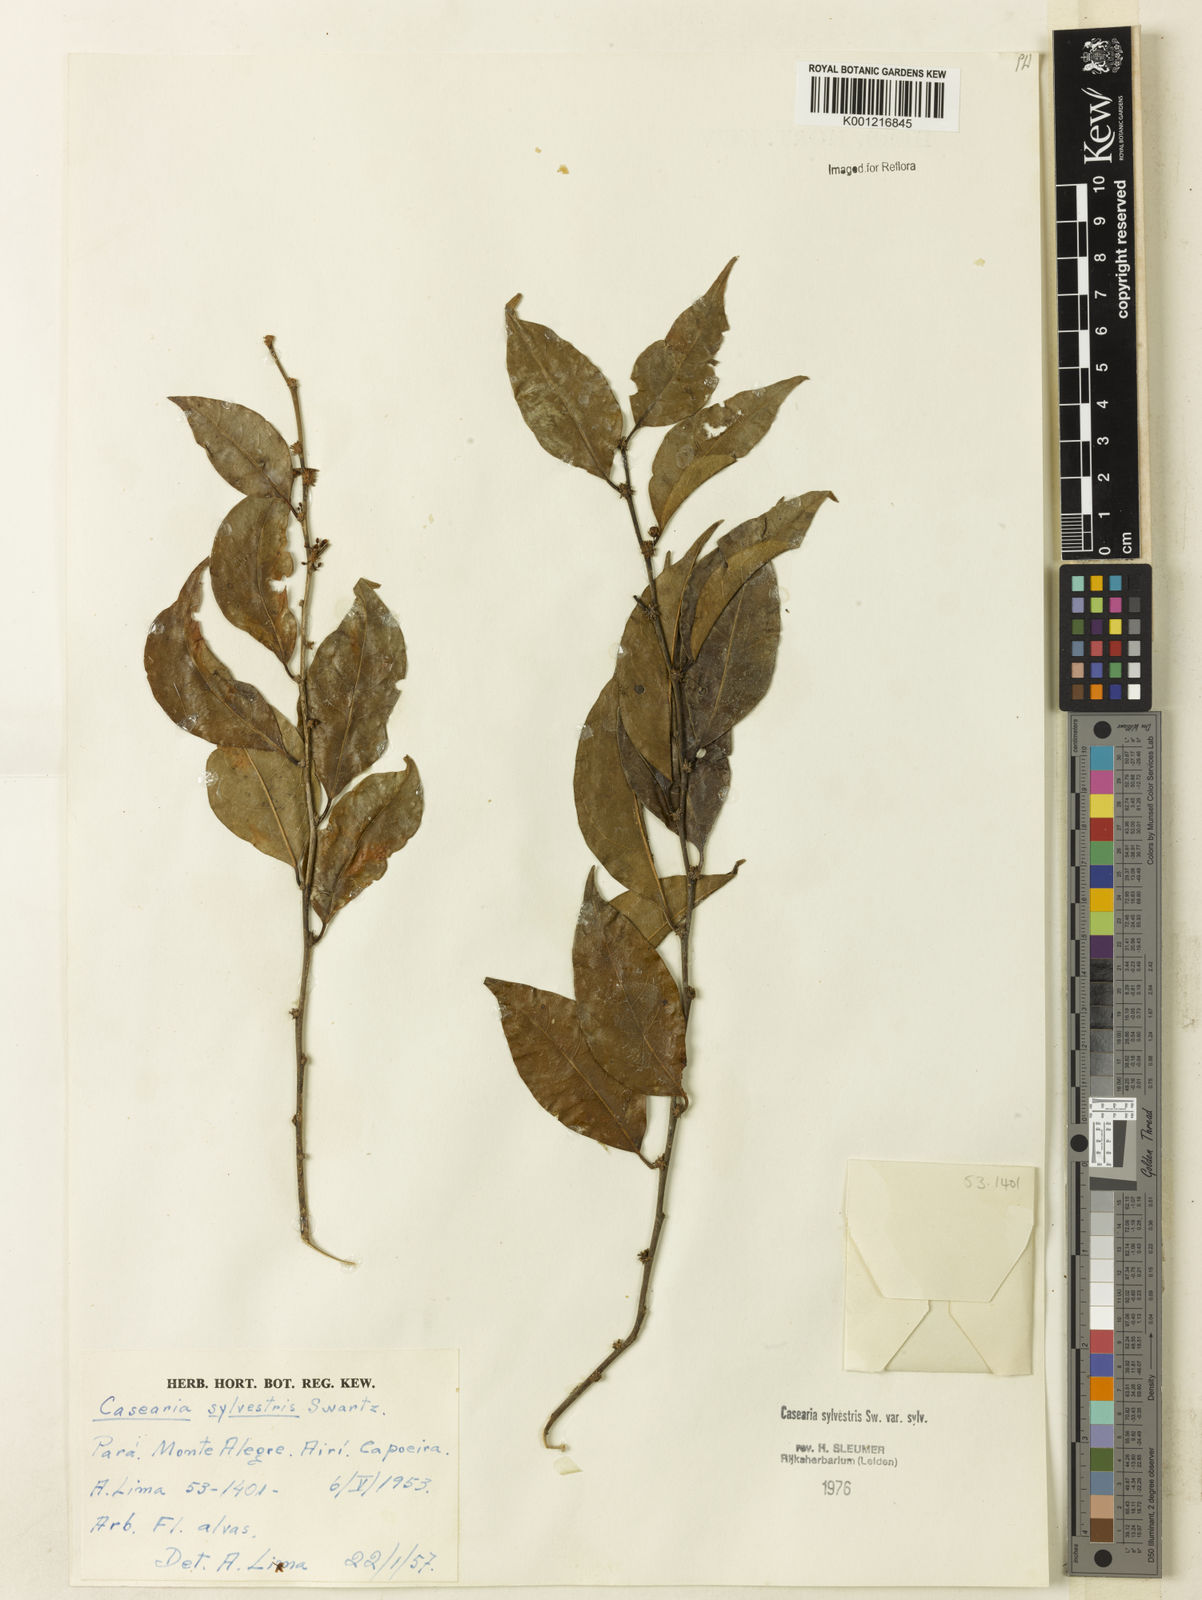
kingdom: Plantae
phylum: Tracheophyta
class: Magnoliopsida
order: Malpighiales
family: Salicaceae
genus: Casearia
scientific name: Casearia sylvestris
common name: Wild sage
